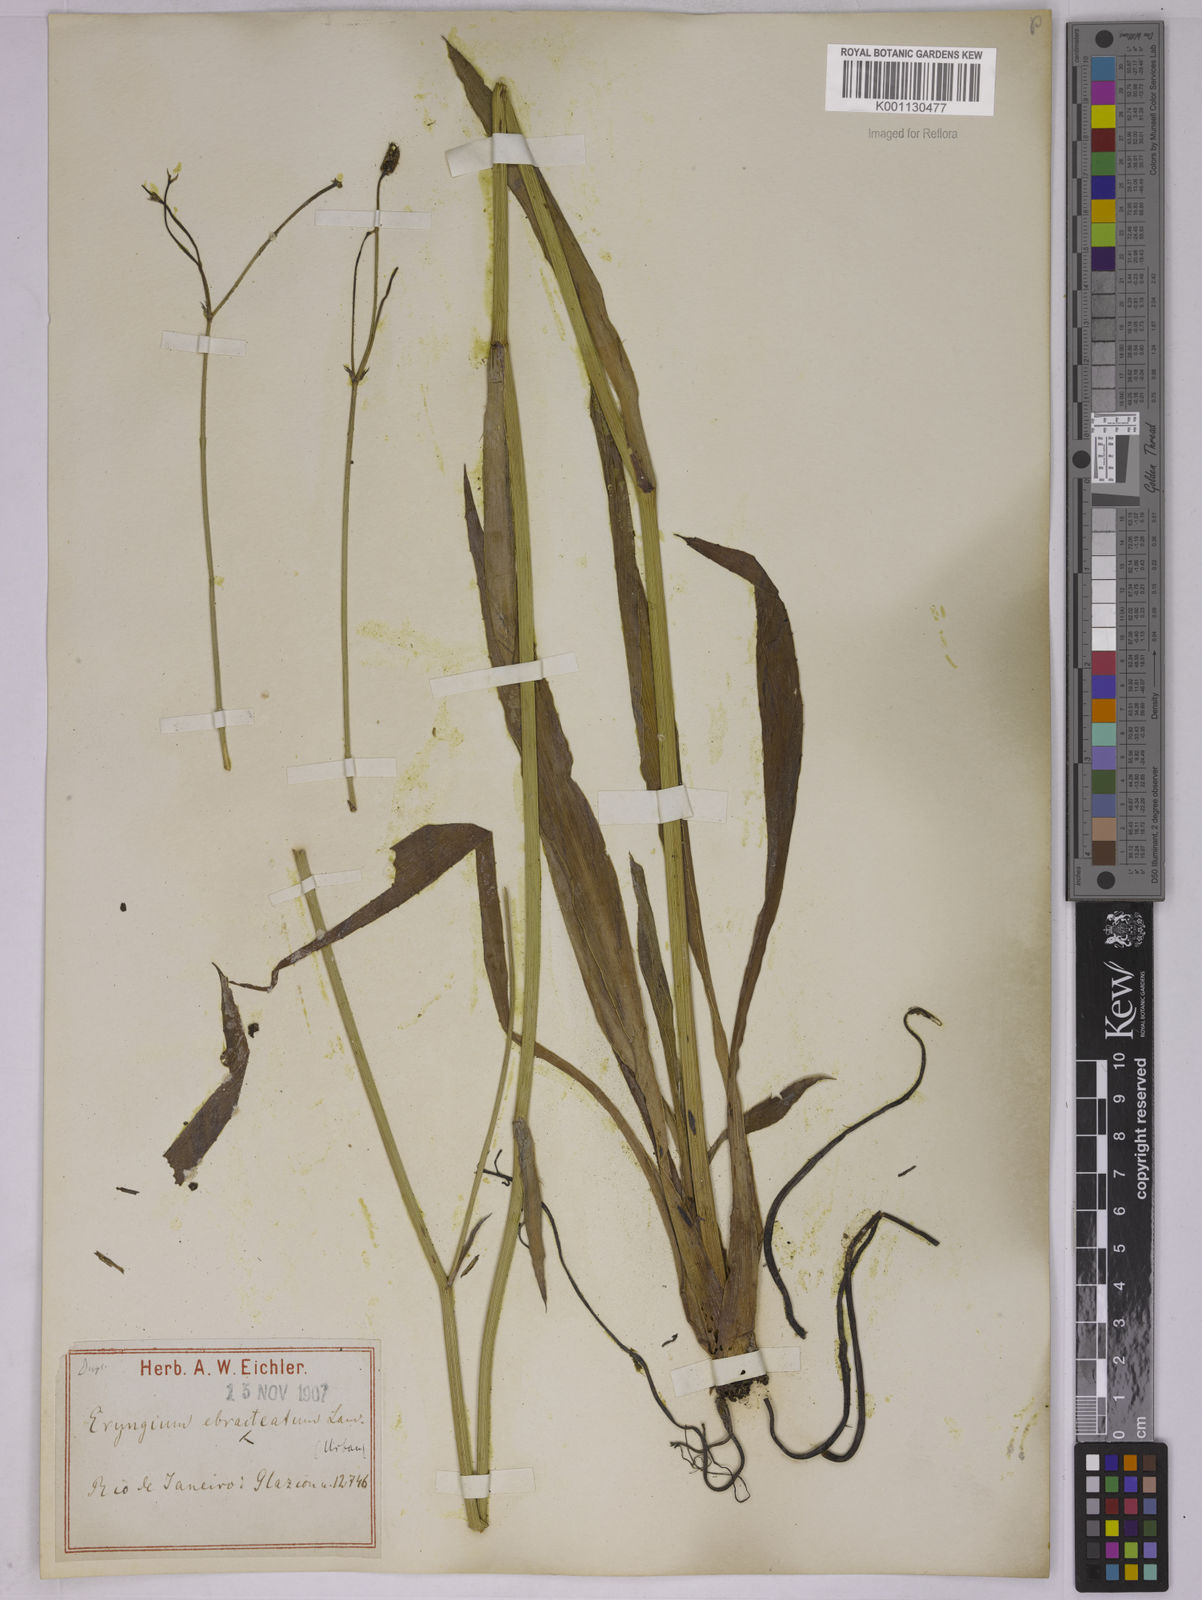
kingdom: Plantae
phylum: Tracheophyta
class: Magnoliopsida
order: Apiales
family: Apiaceae
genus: Eryngium
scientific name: Eryngium ebracteatum
